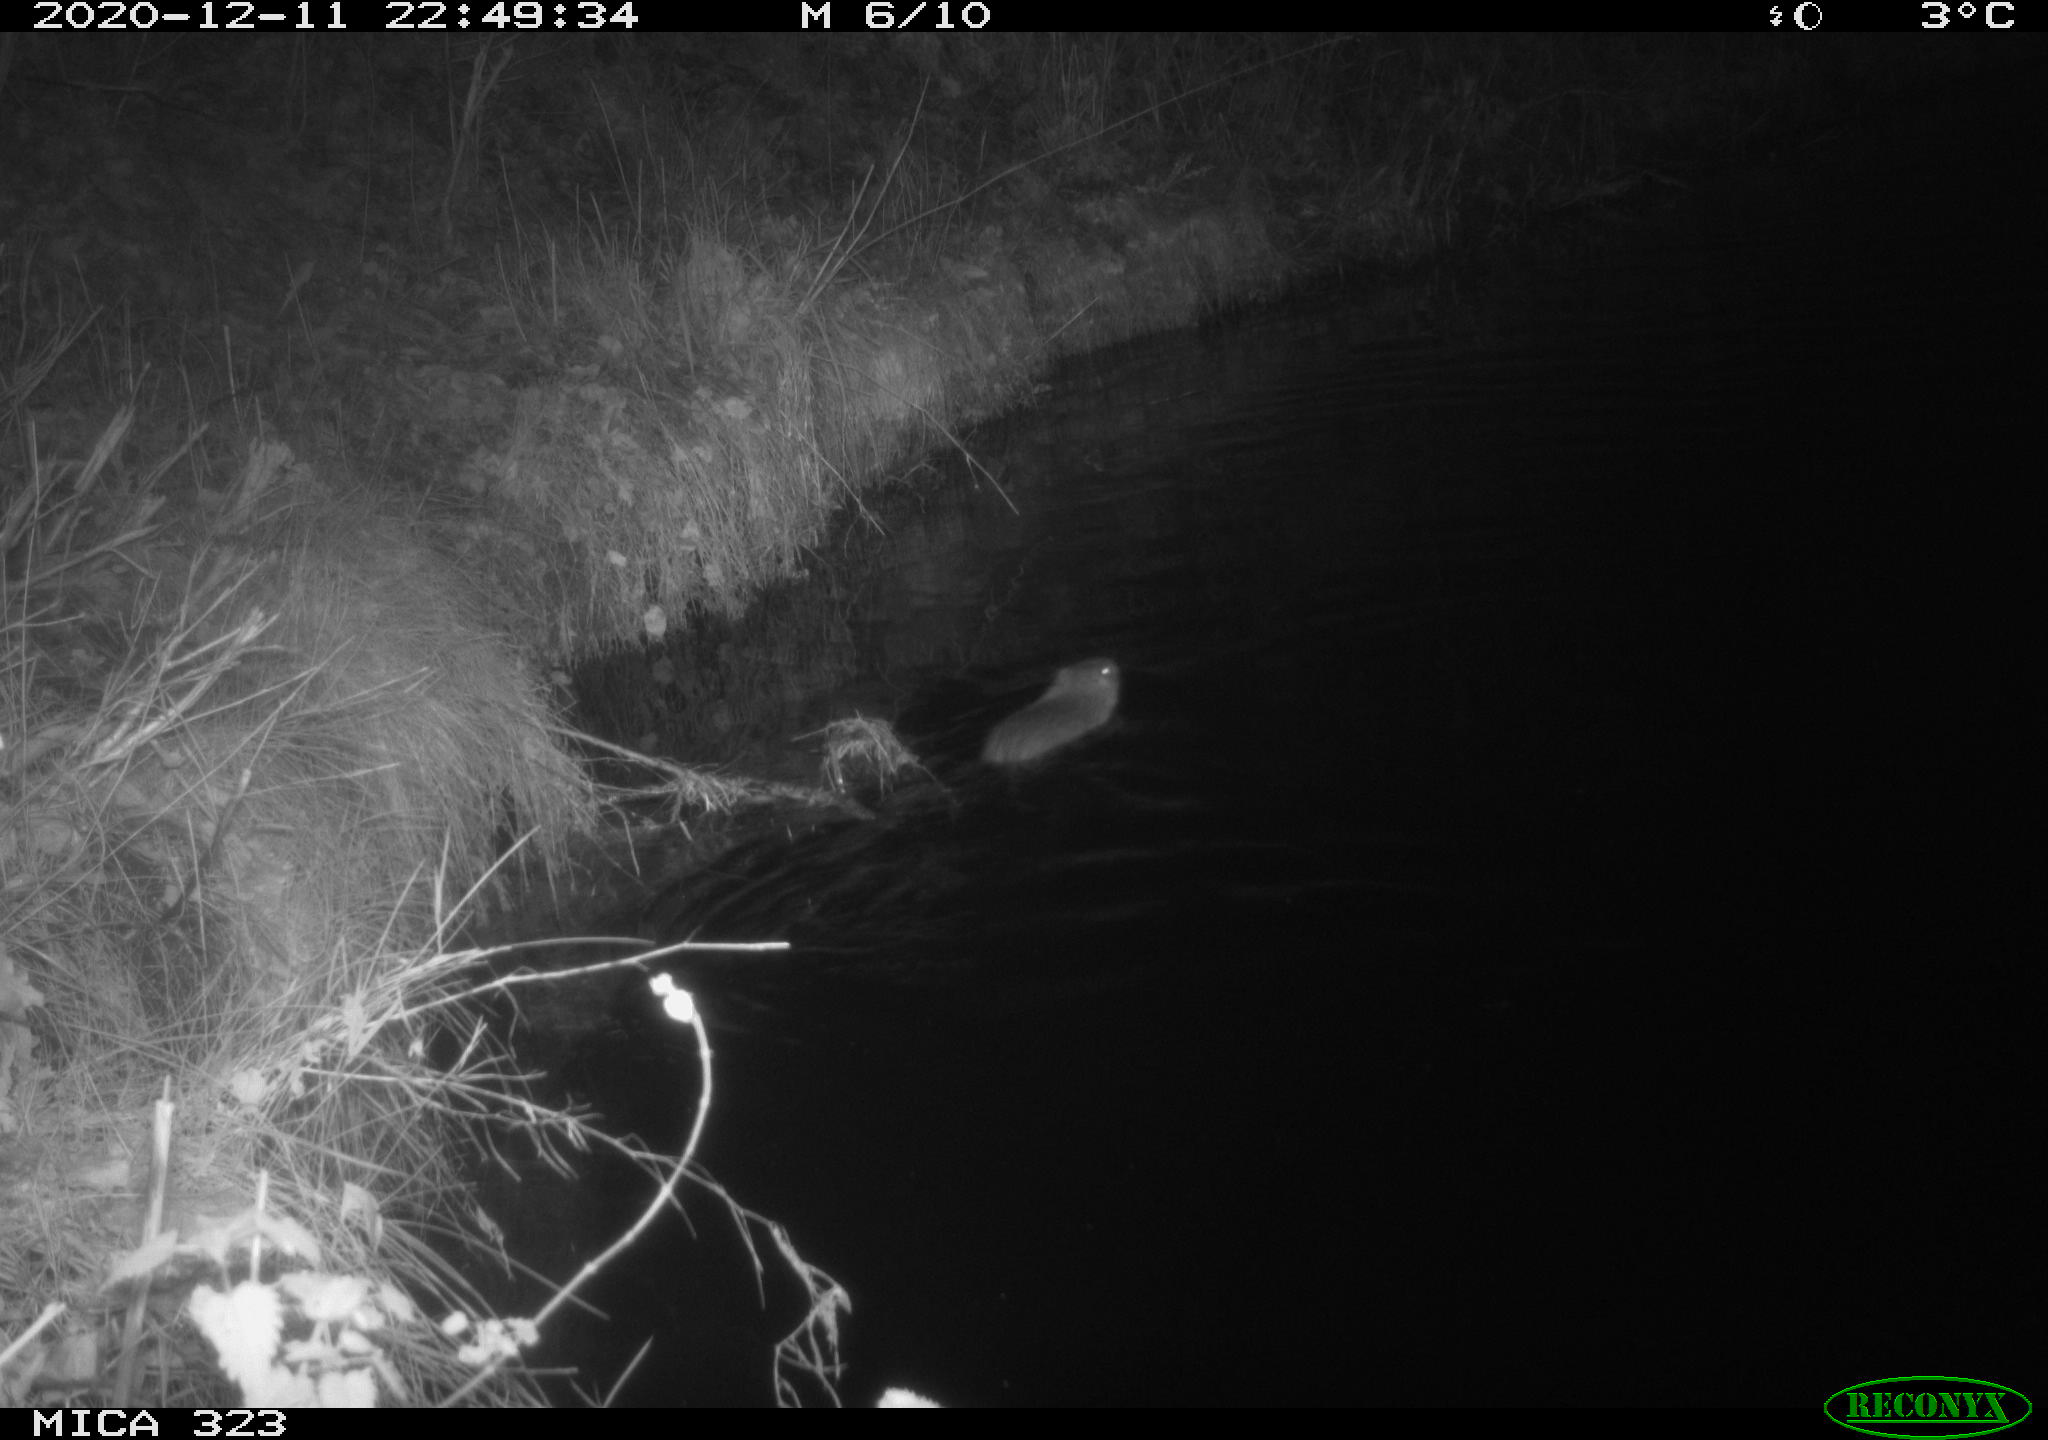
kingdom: Animalia
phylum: Chordata
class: Mammalia
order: Rodentia
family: Myocastoridae
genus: Myocastor
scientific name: Myocastor coypus
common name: Coypu
